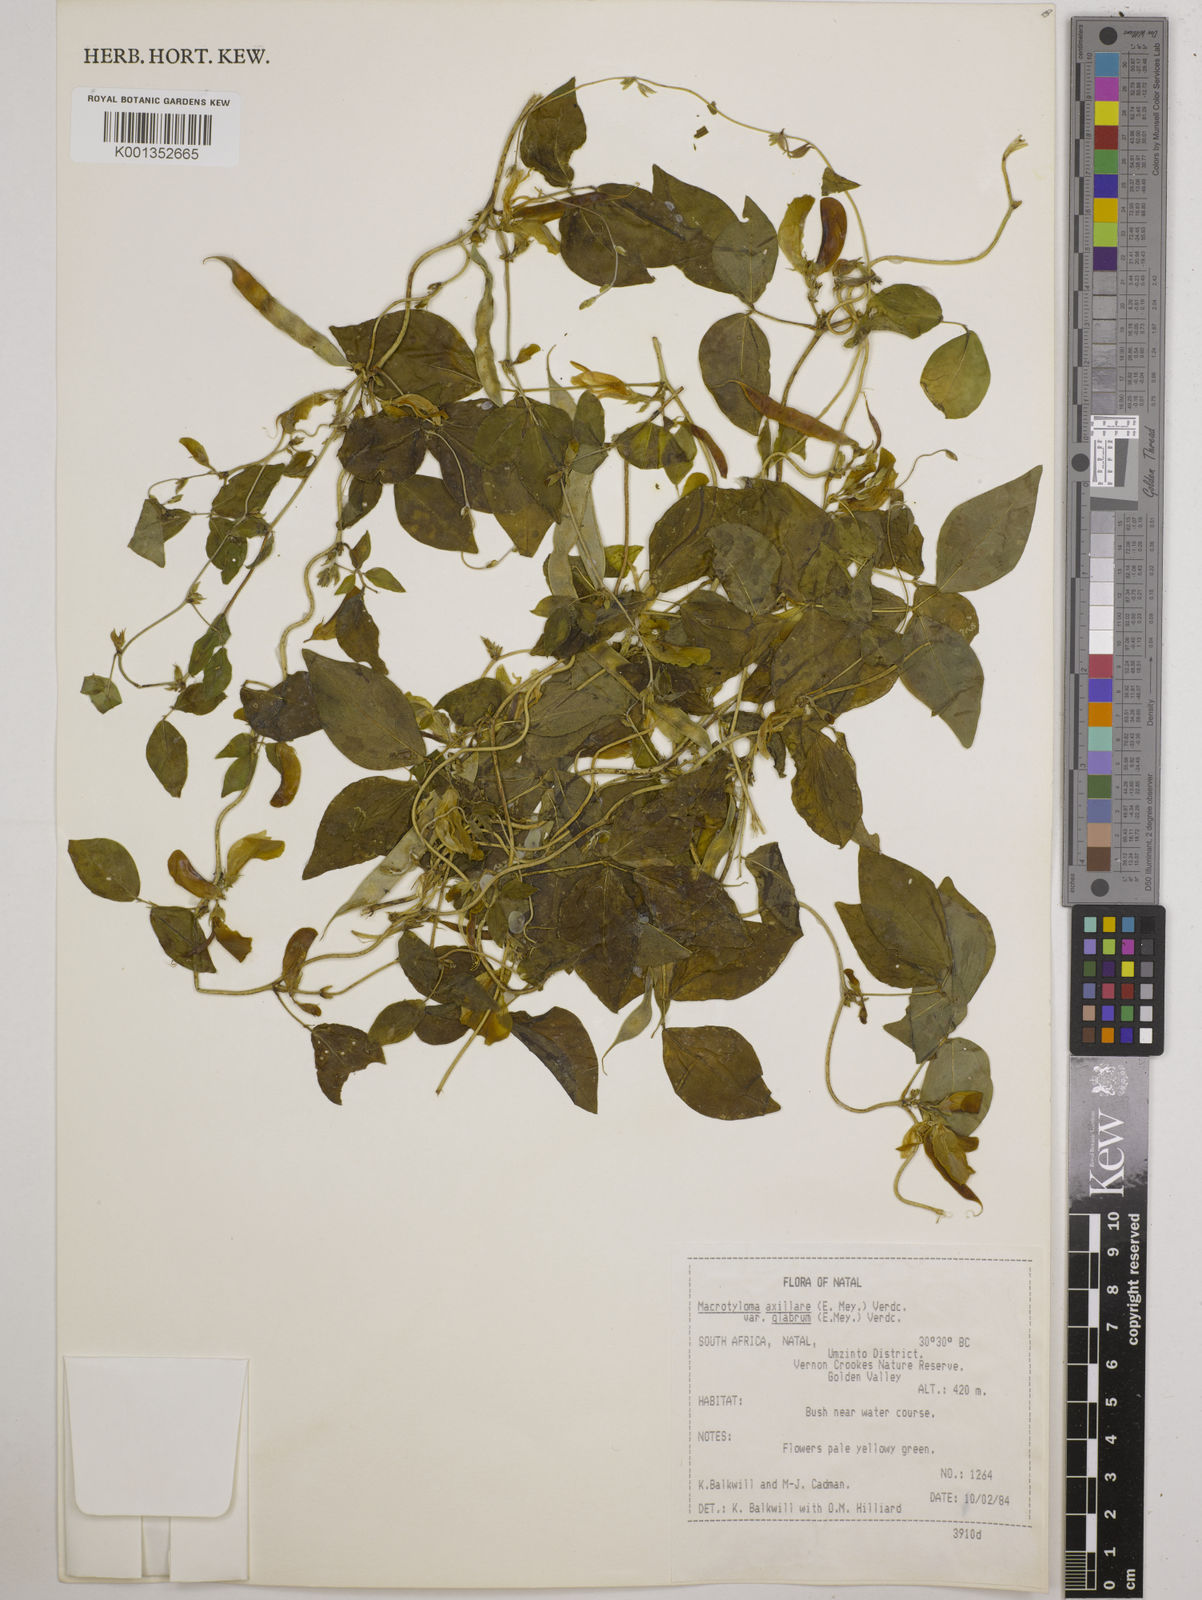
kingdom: Plantae
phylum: Tracheophyta
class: Magnoliopsida
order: Fabales
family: Fabaceae
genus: Macrotyloma
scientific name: Macrotyloma axillare
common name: Perennial horsegram
